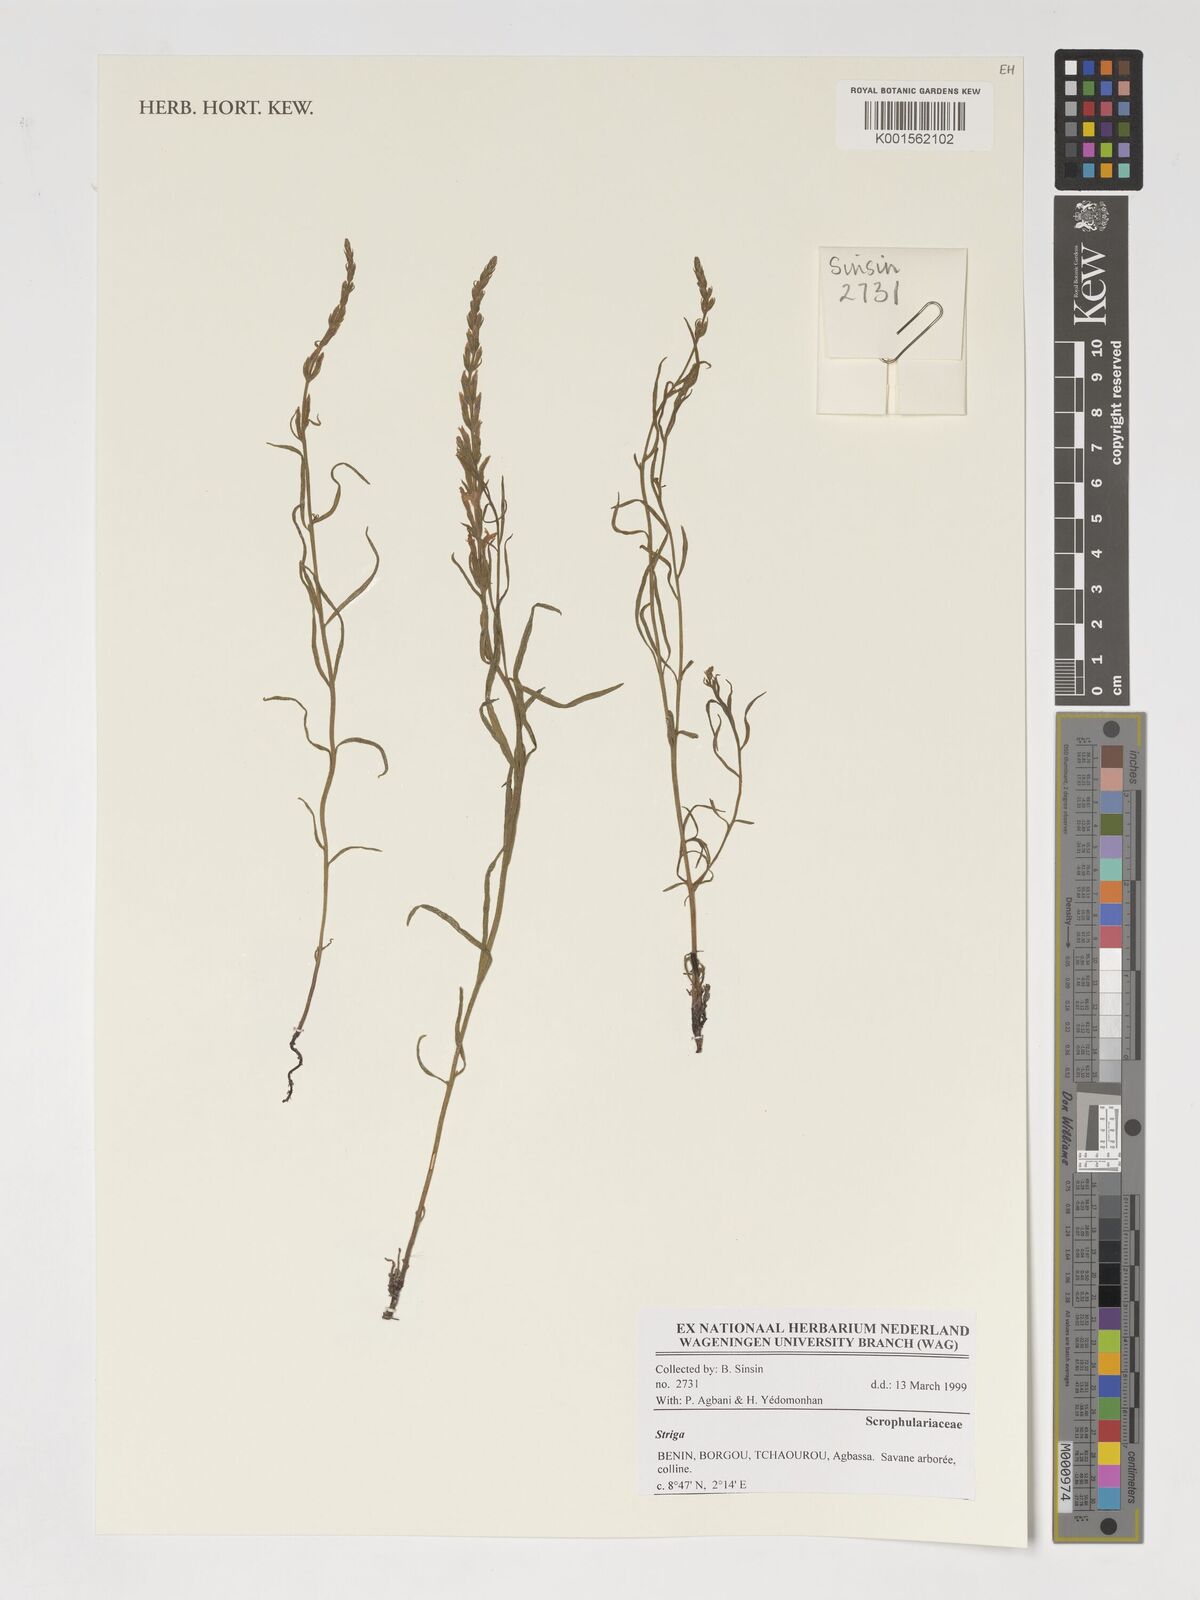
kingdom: Plantae
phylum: Tracheophyta
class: Magnoliopsida
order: Lamiales
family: Orobanchaceae
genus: Striga
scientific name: Striga
